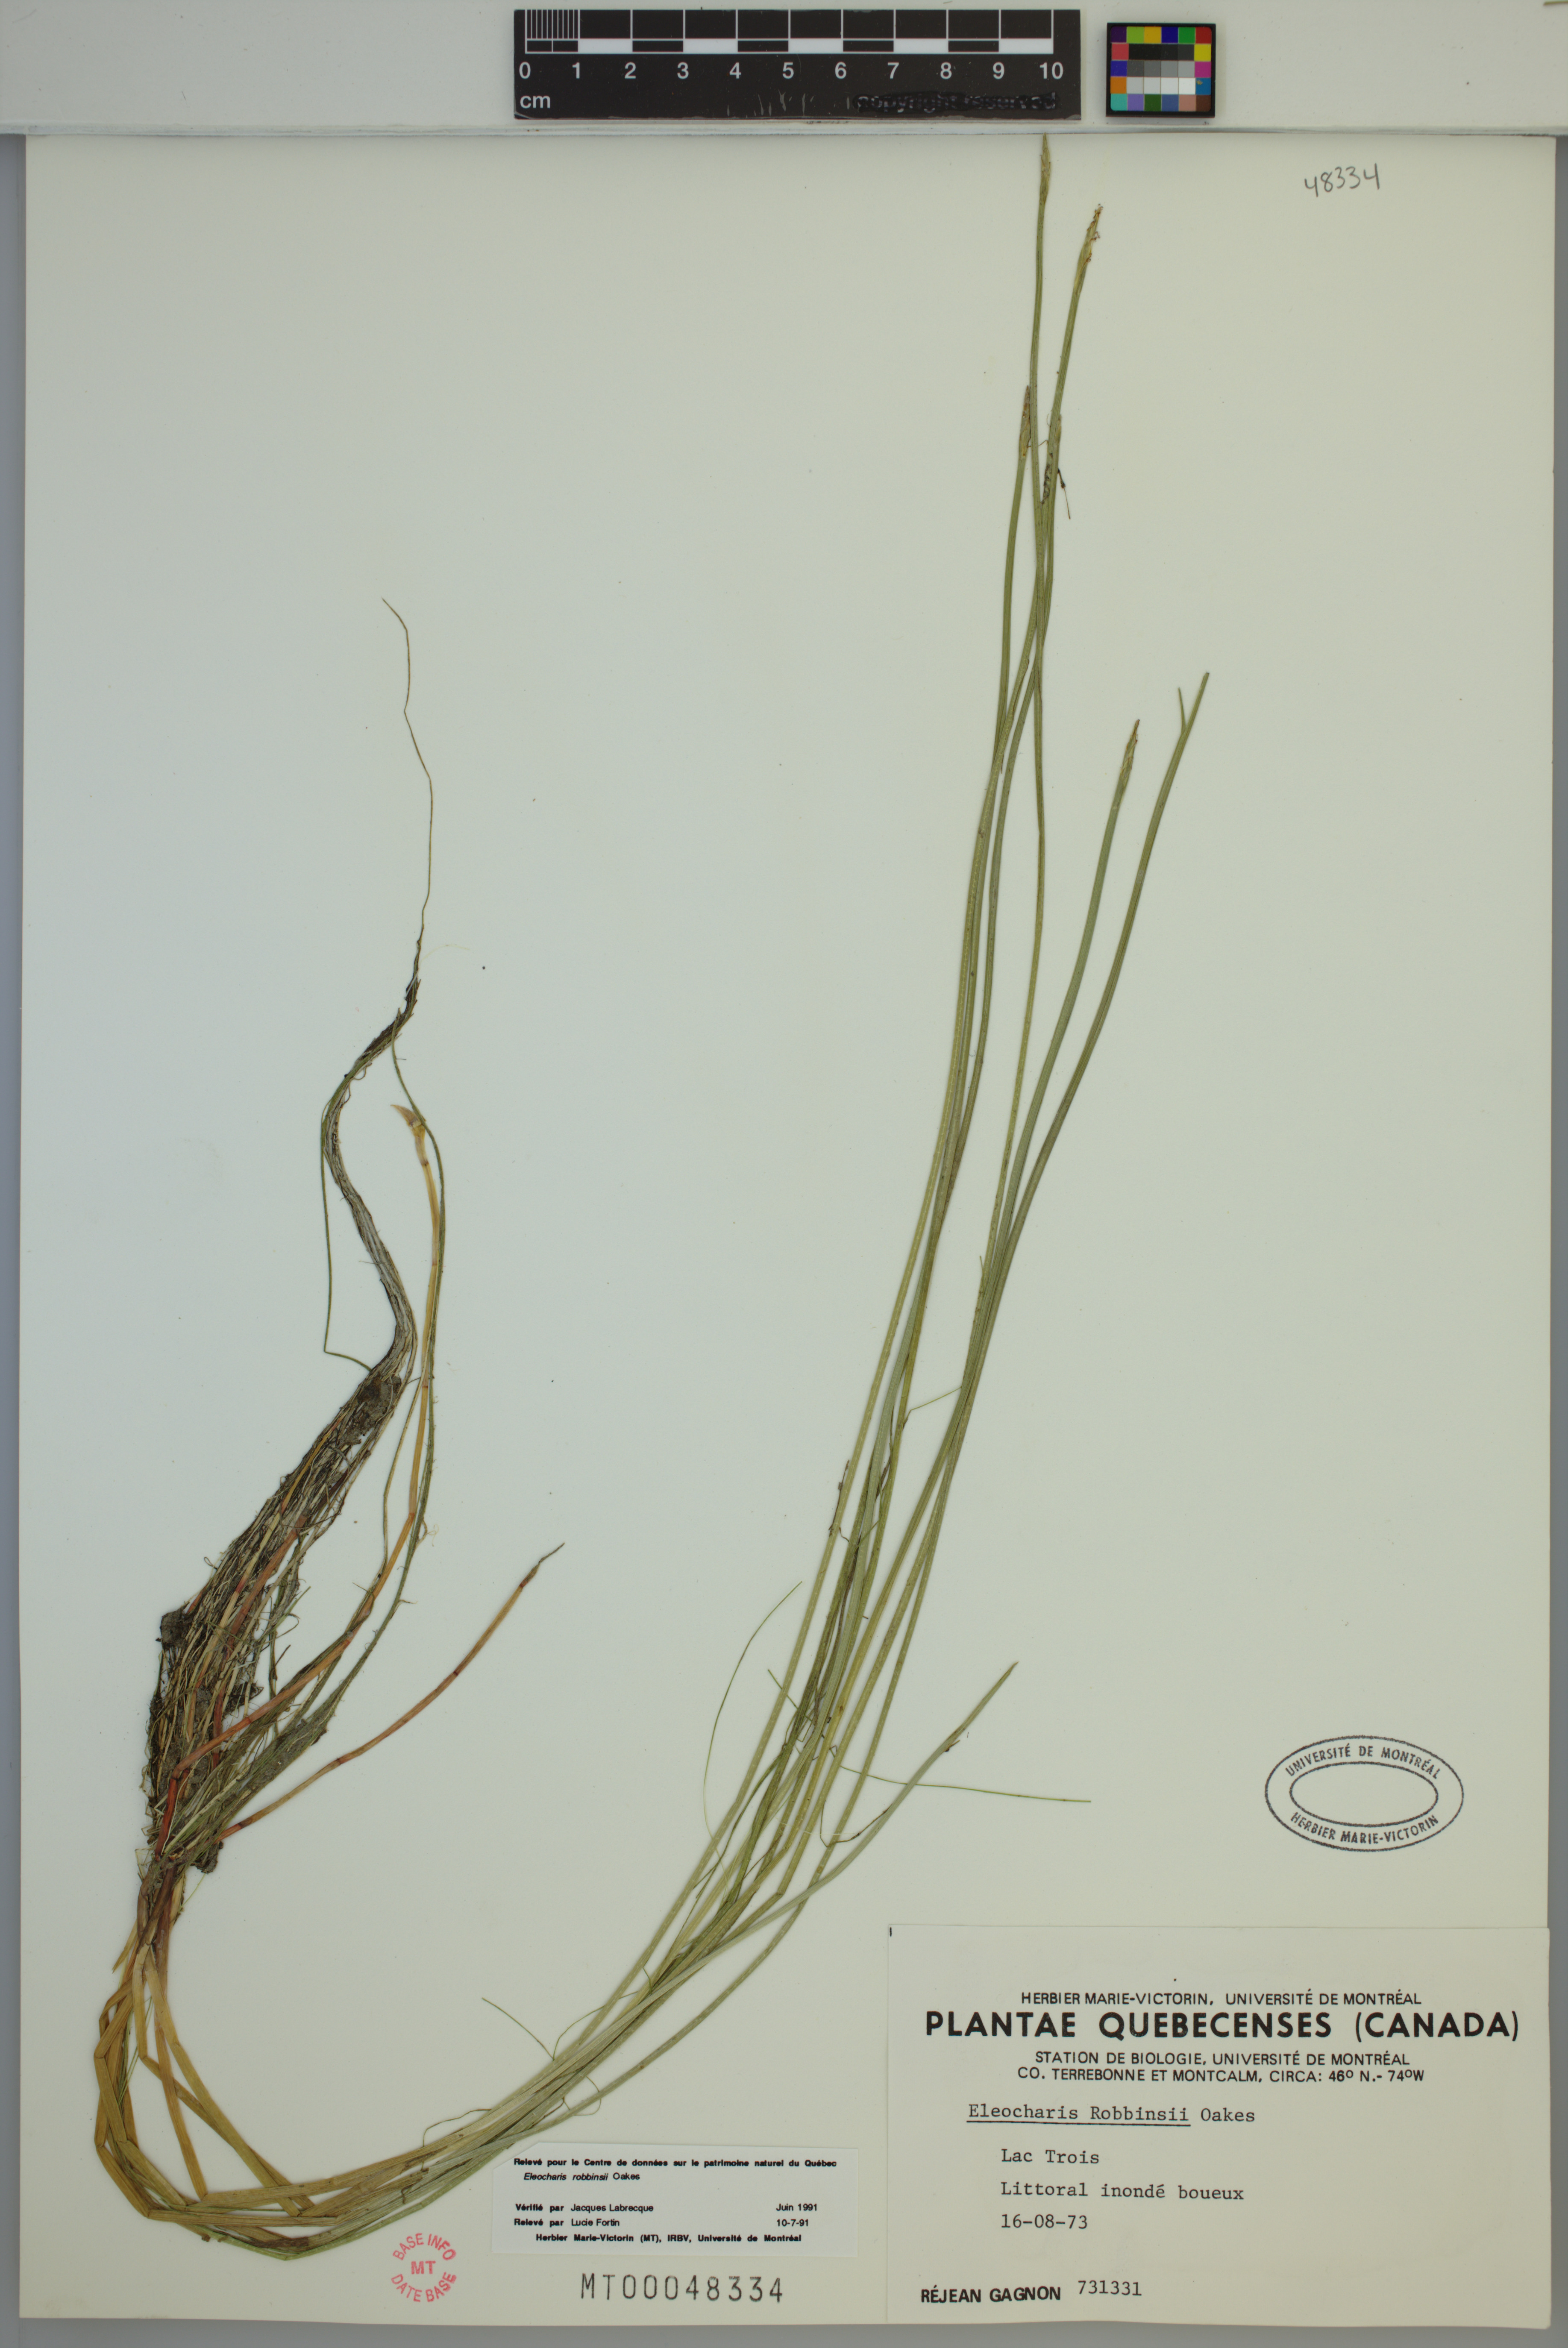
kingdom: Plantae
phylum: Tracheophyta
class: Liliopsida
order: Poales
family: Cyperaceae
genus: Eleocharis
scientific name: Eleocharis robbinsii
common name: Robbins' spikerush
